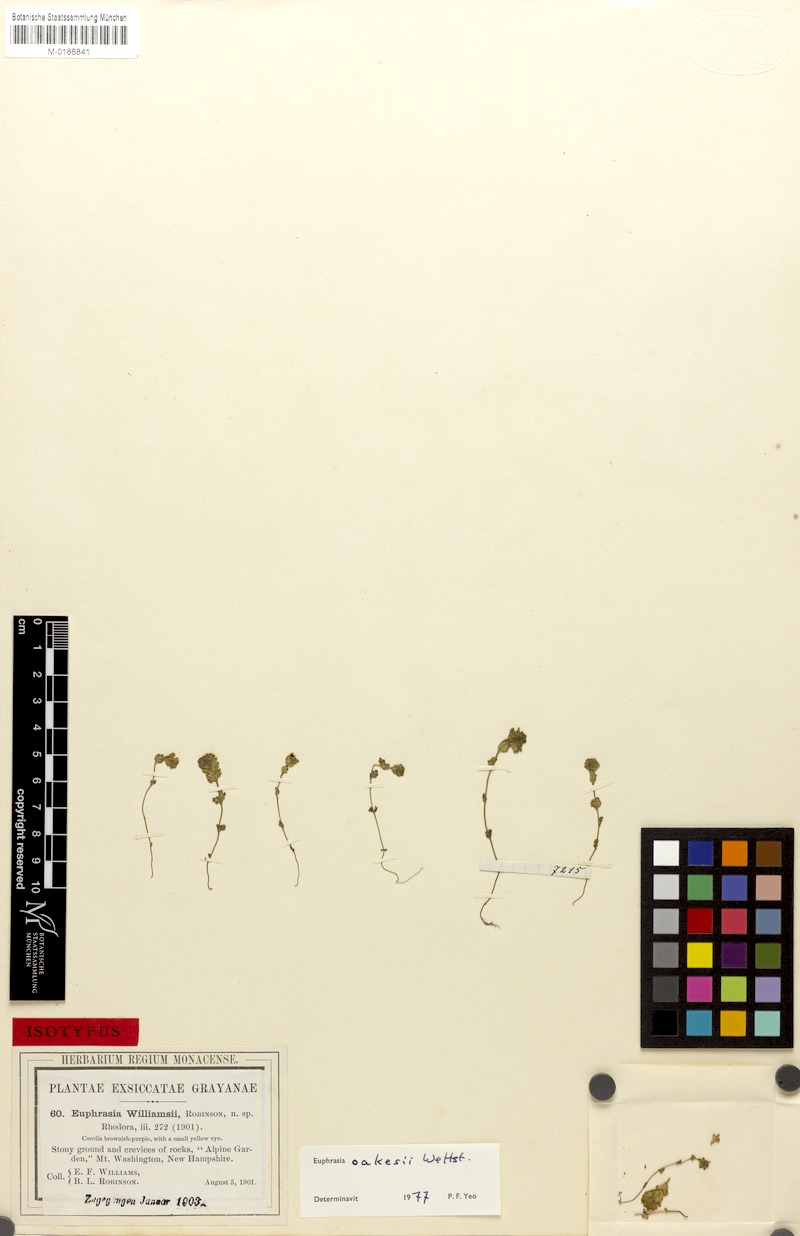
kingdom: Plantae
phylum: Tracheophyta
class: Magnoliopsida
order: Lamiales
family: Orobanchaceae
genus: Euphrasia
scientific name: Euphrasia oakesii
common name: Oakes' eyebright
